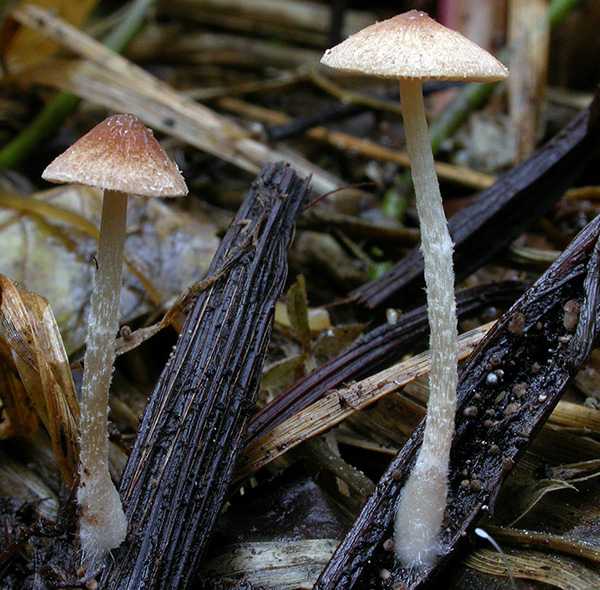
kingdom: Fungi
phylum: Basidiomycota
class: Agaricomycetes
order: Agaricales
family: Psathyrellaceae
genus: Candolleomyces
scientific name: Candolleomyces typhae
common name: dunhammer-mørkhat
